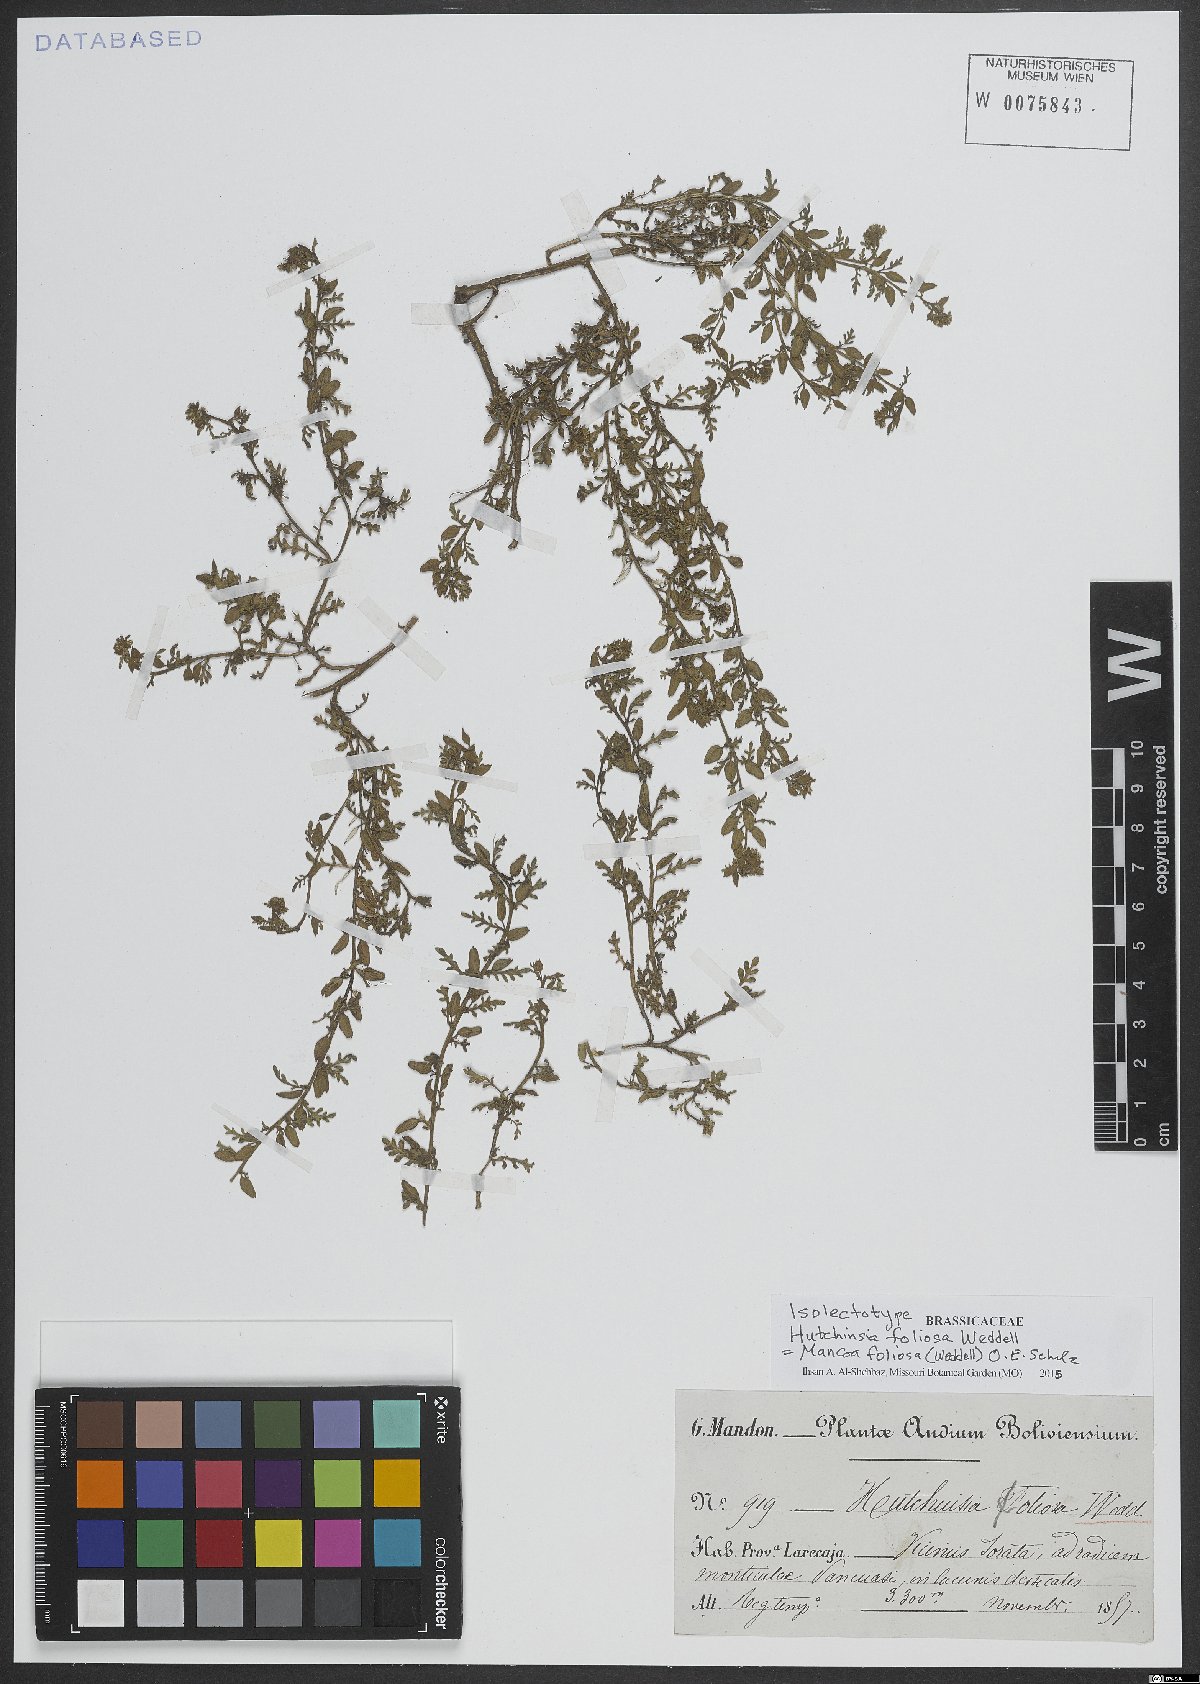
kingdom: Plantae
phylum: Tracheophyta
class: Magnoliopsida
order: Brassicales
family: Brassicaceae
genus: Mancoa
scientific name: Mancoa foliosa
